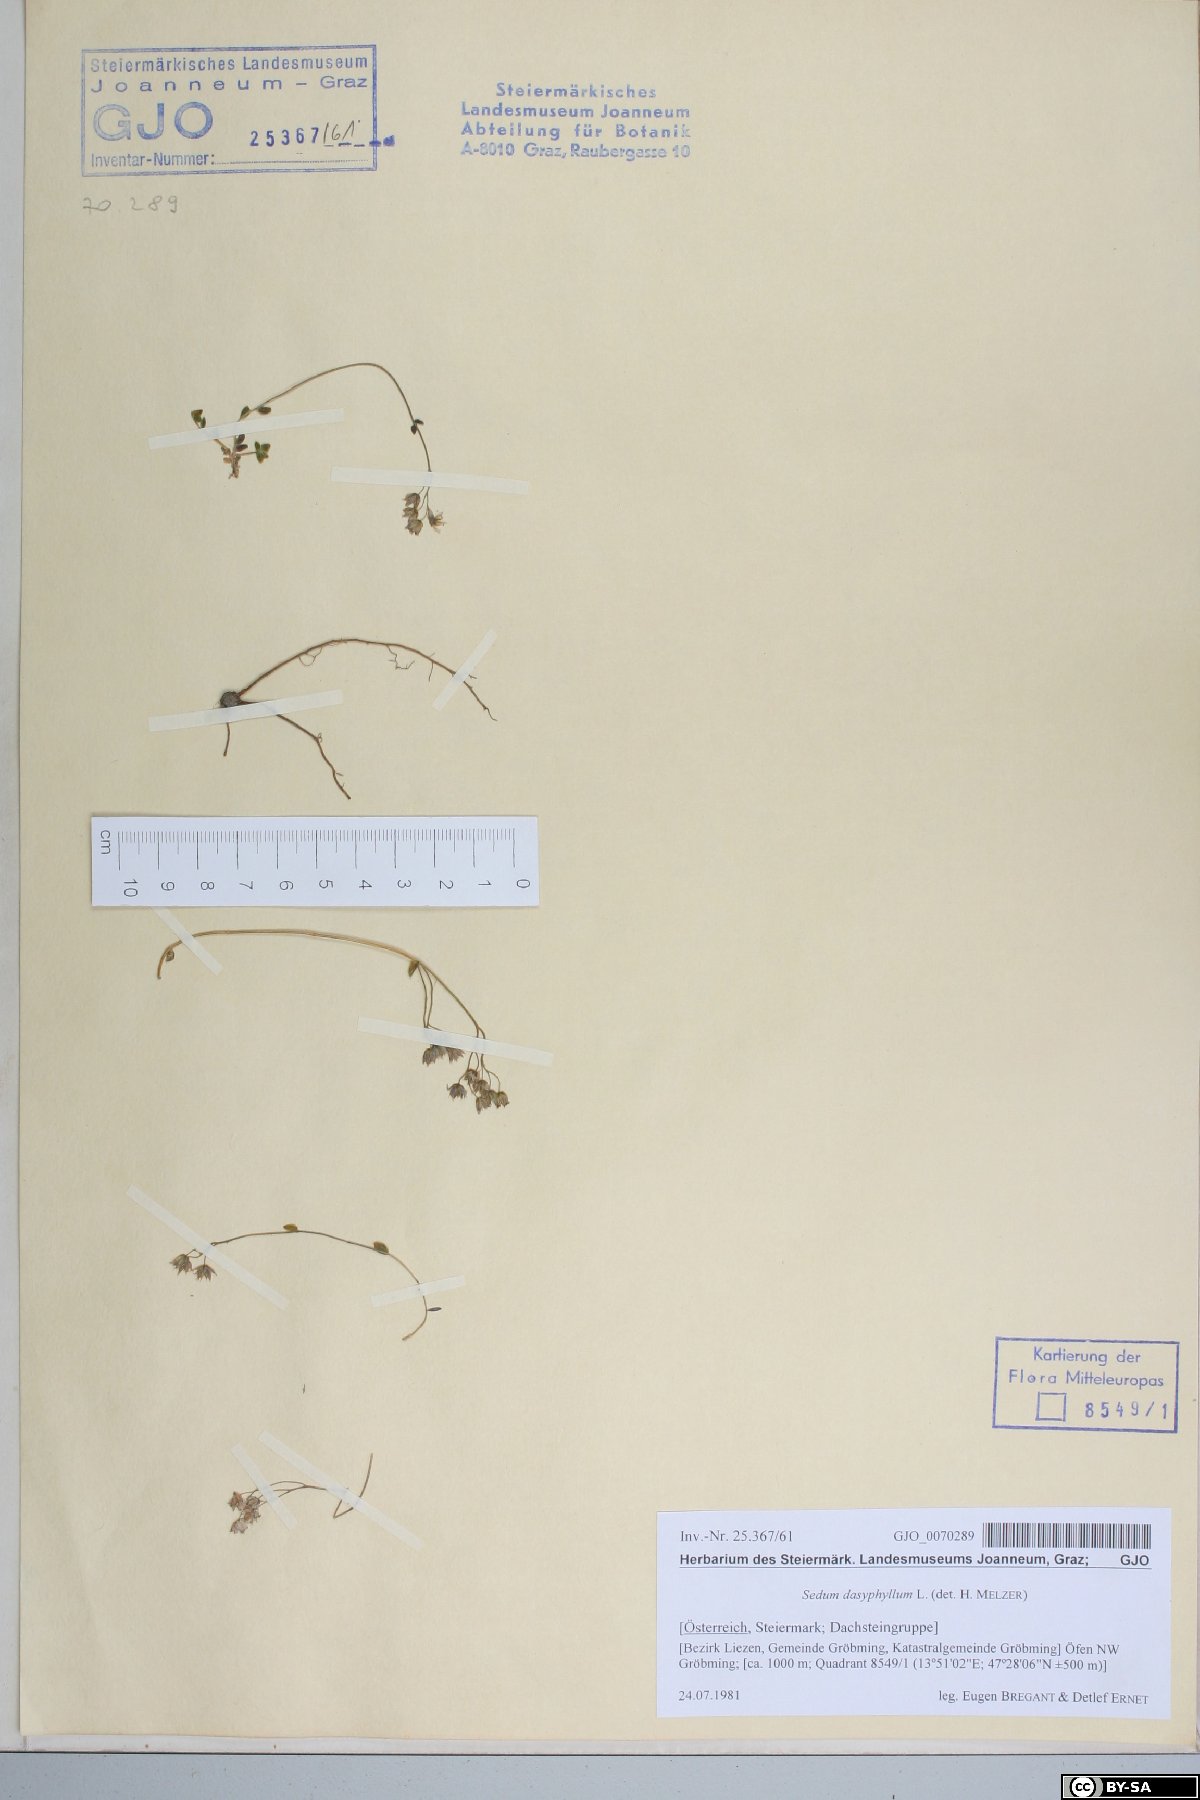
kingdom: Plantae
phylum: Tracheophyta
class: Magnoliopsida
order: Saxifragales
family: Crassulaceae
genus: Sedum
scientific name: Sedum dasyphyllum
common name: Thick-leaf stonecrop
